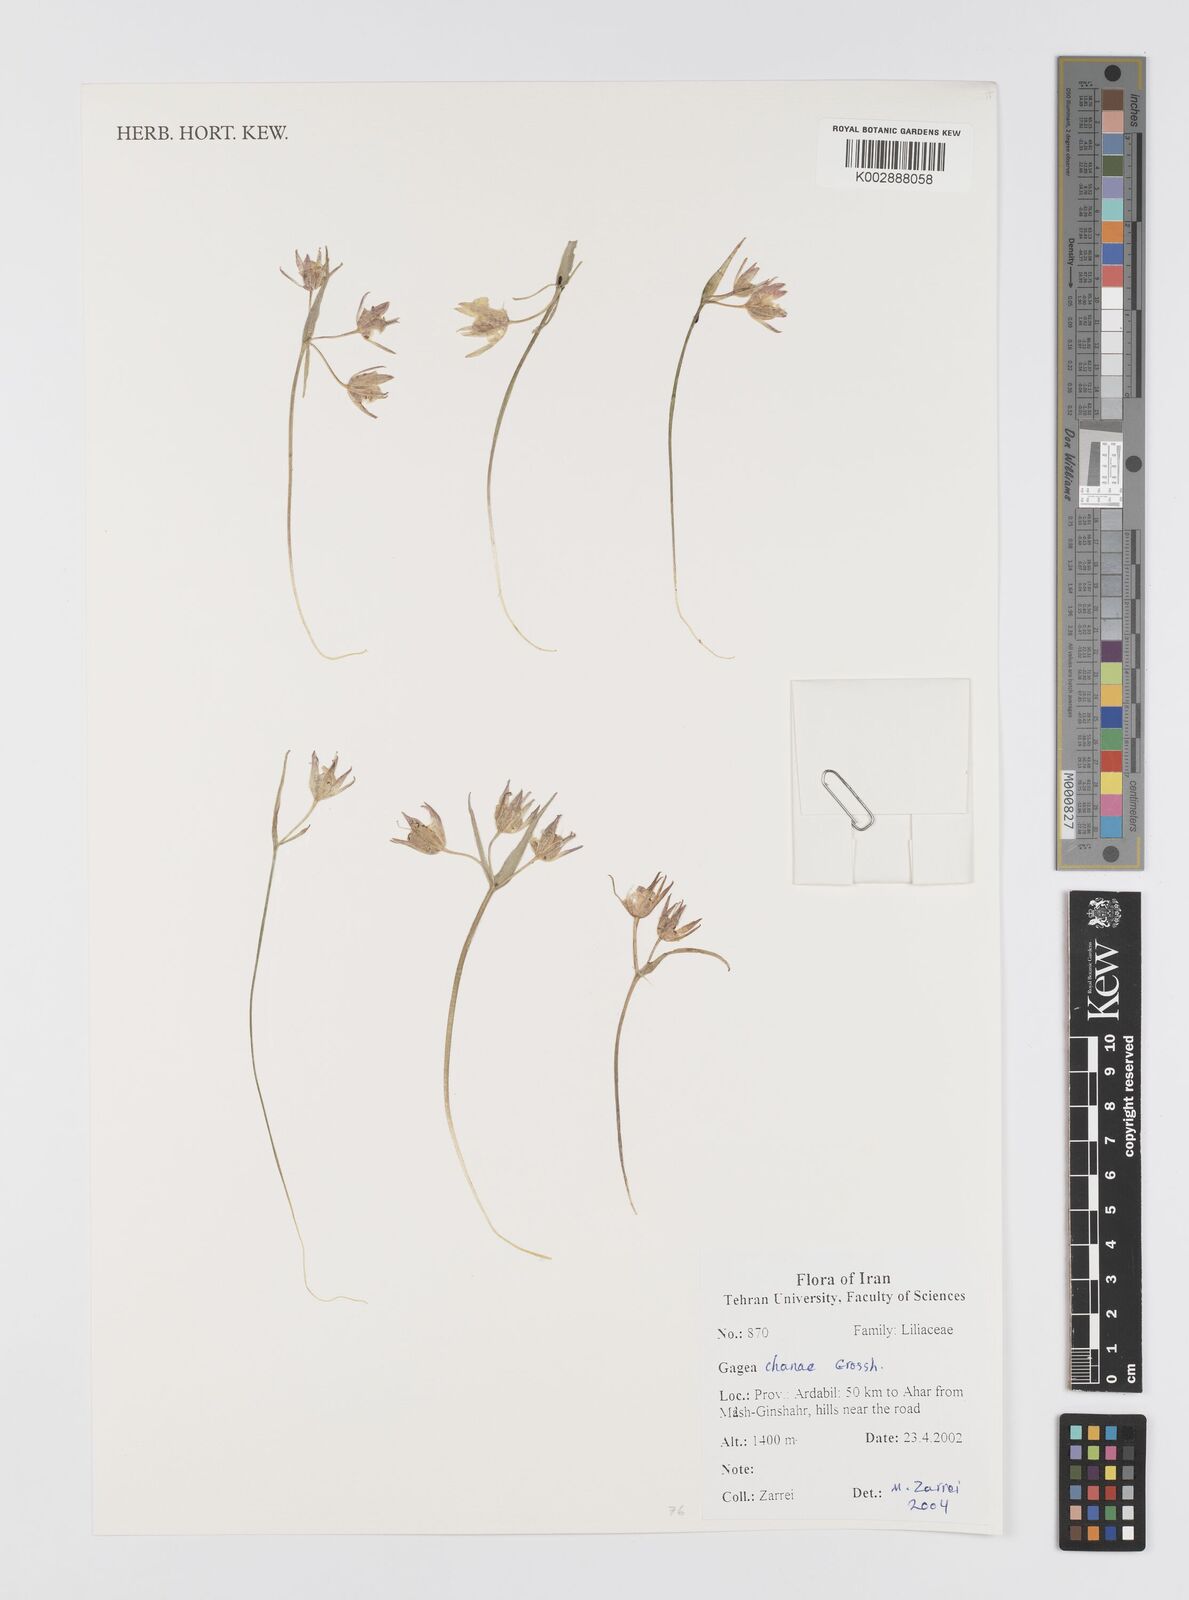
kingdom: Plantae
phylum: Tracheophyta
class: Liliopsida
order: Liliales
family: Liliaceae
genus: Gagea
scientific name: Gagea chanae
